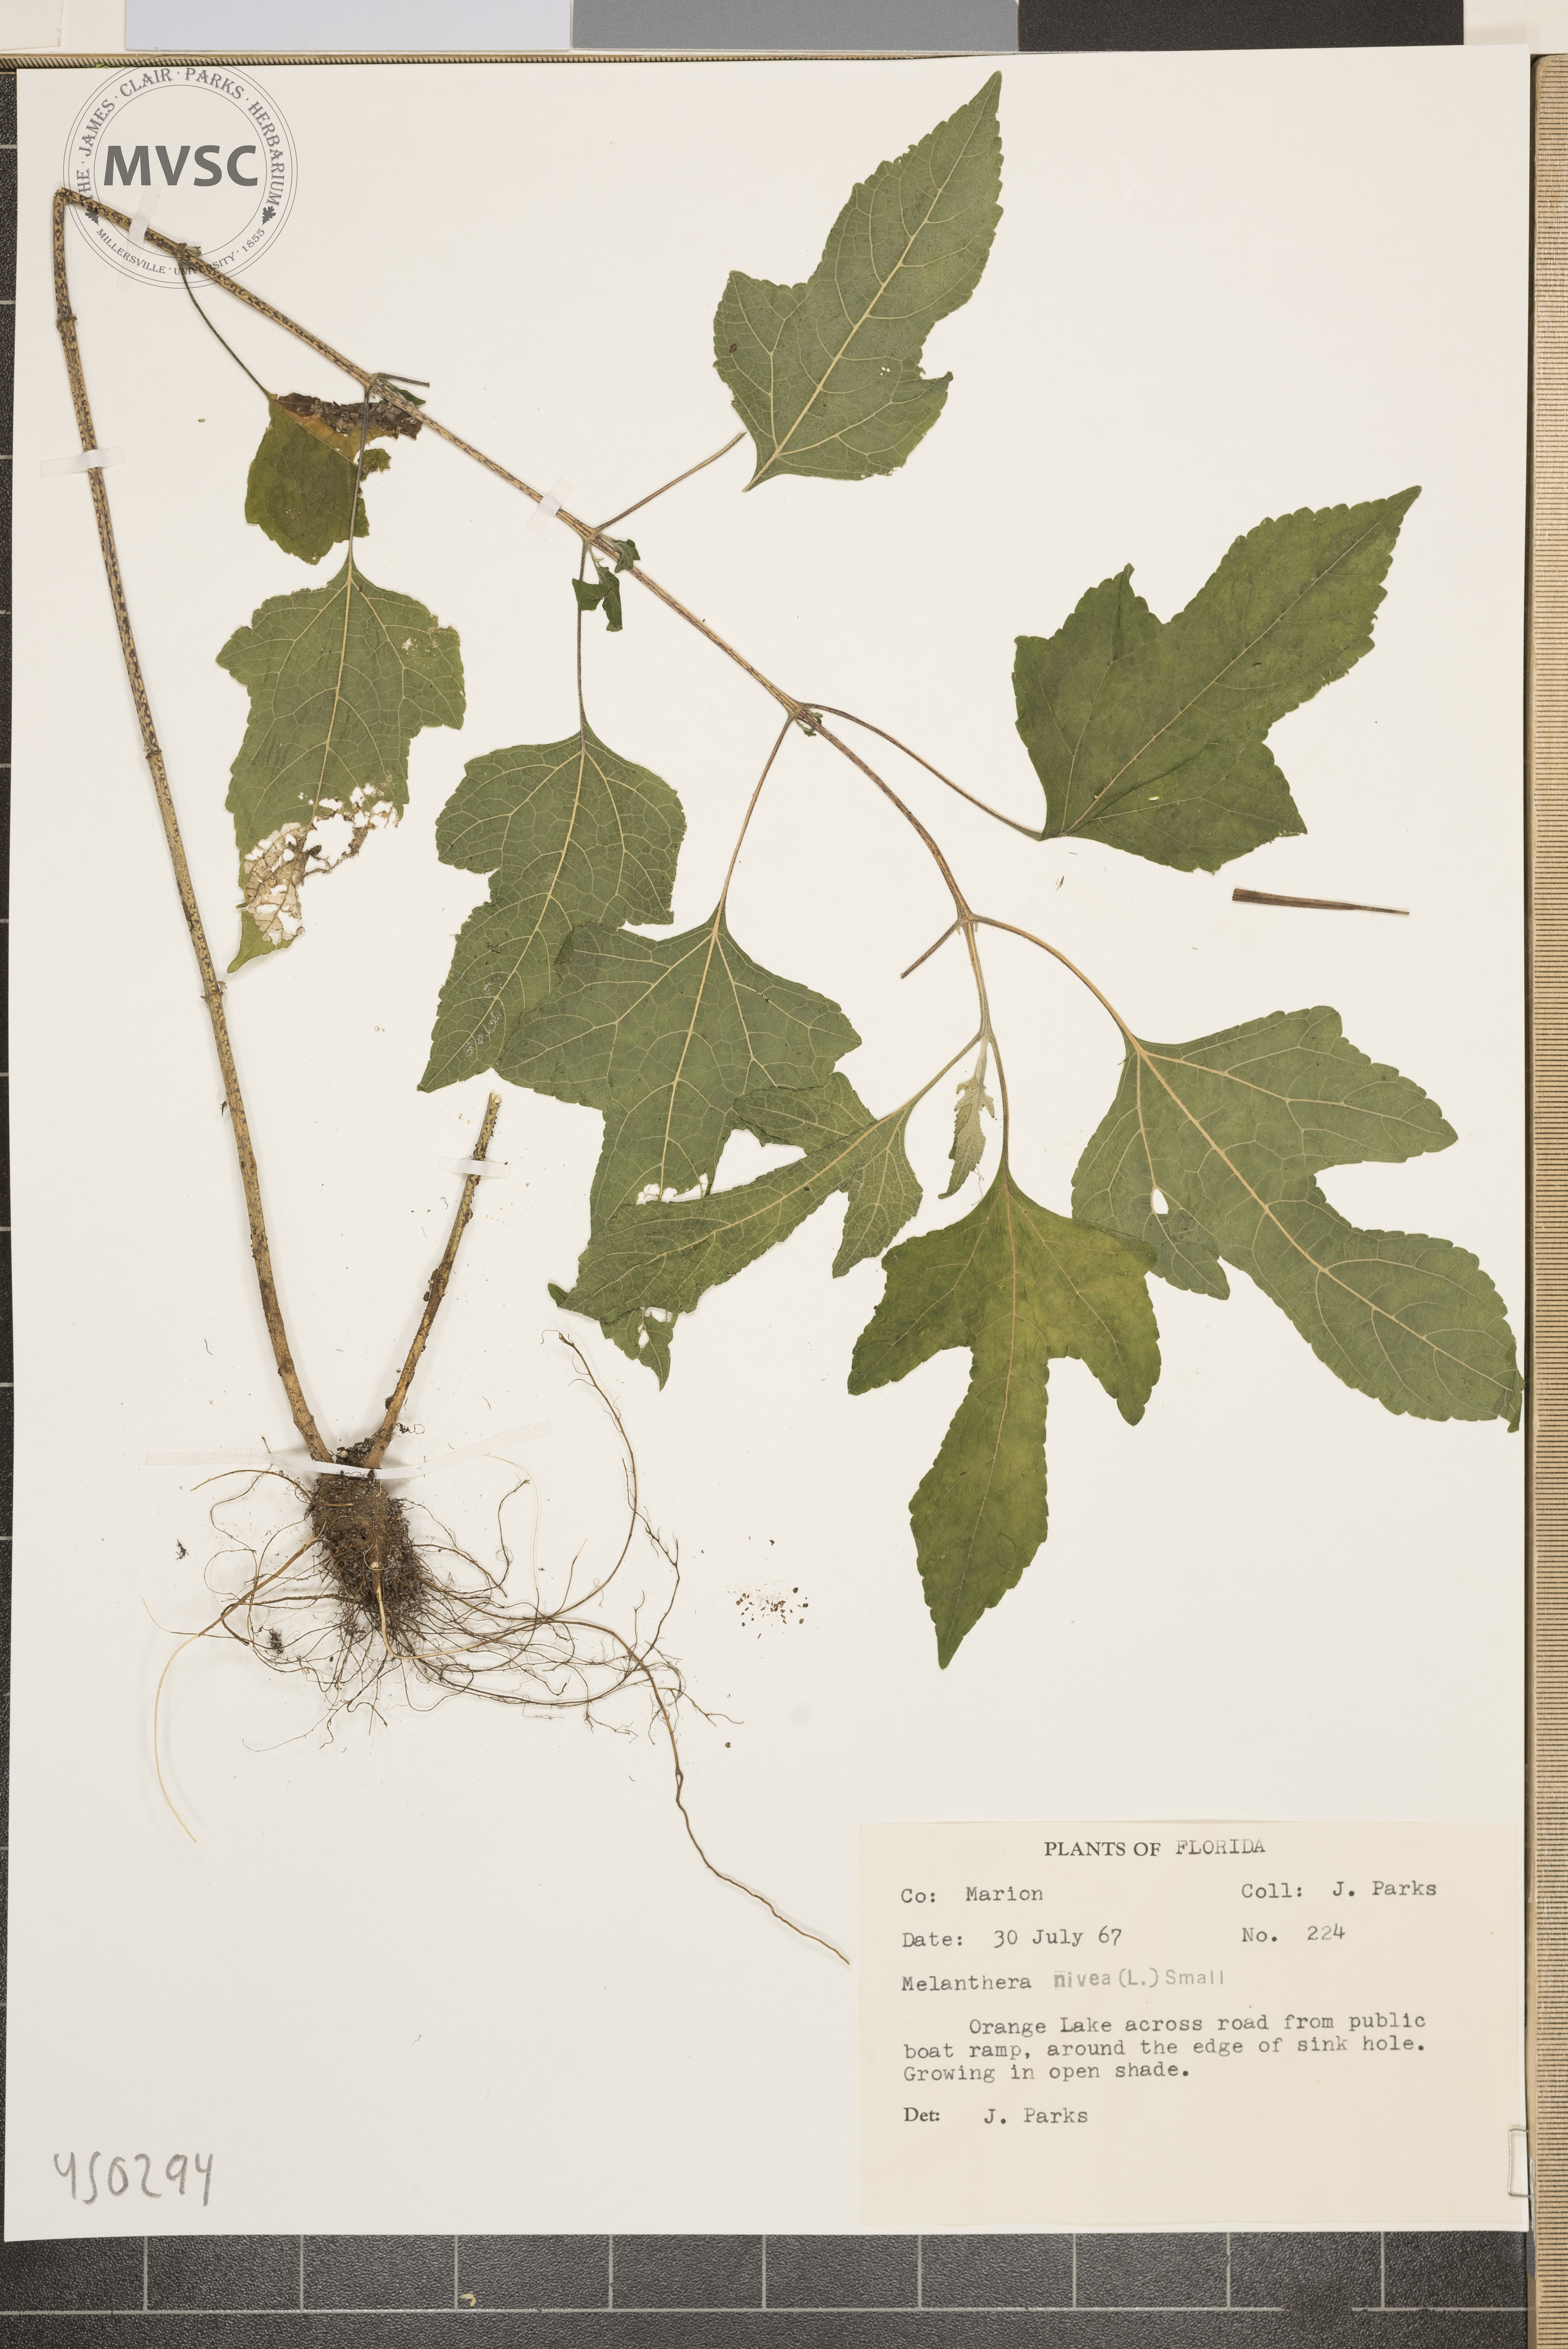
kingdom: Plantae
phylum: Tracheophyta
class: Magnoliopsida
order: Asterales
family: Asteraceae
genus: Melanthera
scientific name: Melanthera nivea
